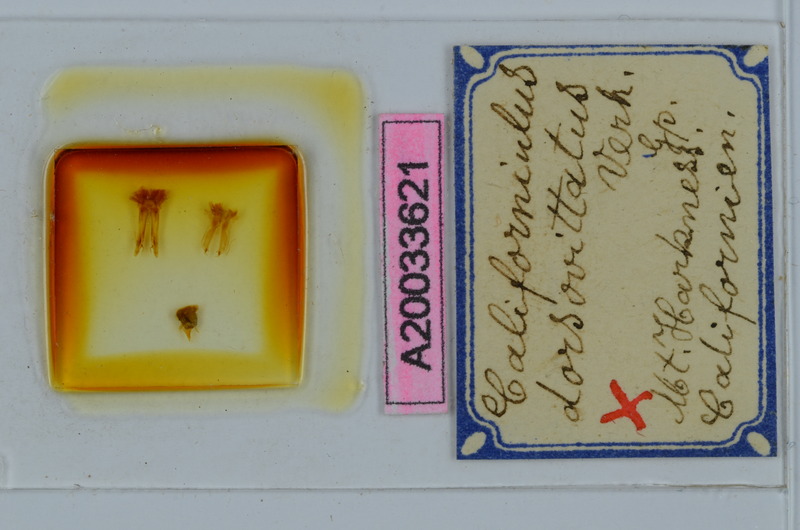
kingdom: Animalia
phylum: Arthropoda
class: Diplopoda
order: Julida
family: Paeromopodidae
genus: Californiulus
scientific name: Californiulus dorsovittatus
